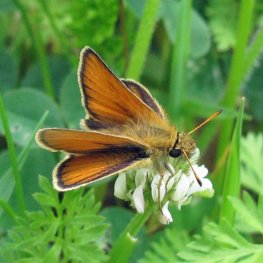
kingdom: Animalia
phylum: Arthropoda
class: Insecta
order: Lepidoptera
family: Hesperiidae
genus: Thymelicus
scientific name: Thymelicus lineola
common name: European Skipper
